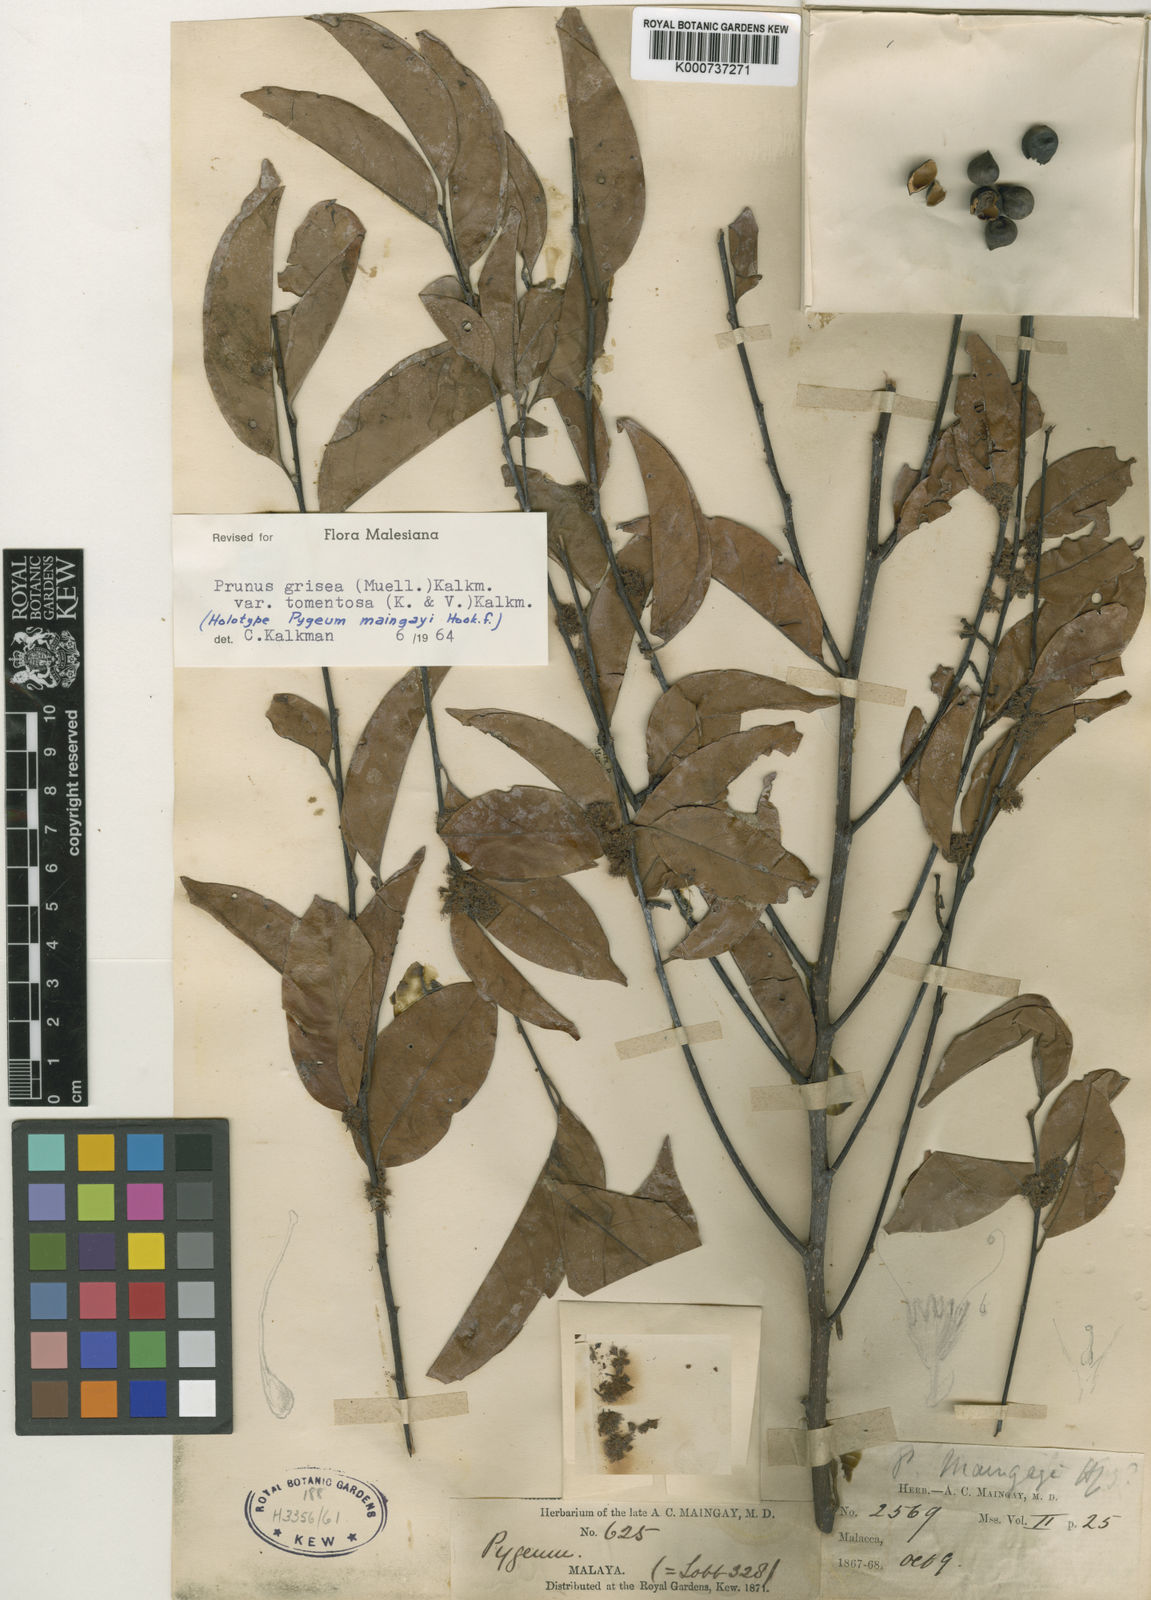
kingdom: Plantae
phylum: Tracheophyta
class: Magnoliopsida
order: Rosales
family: Rosaceae
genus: Prunus
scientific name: Prunus
